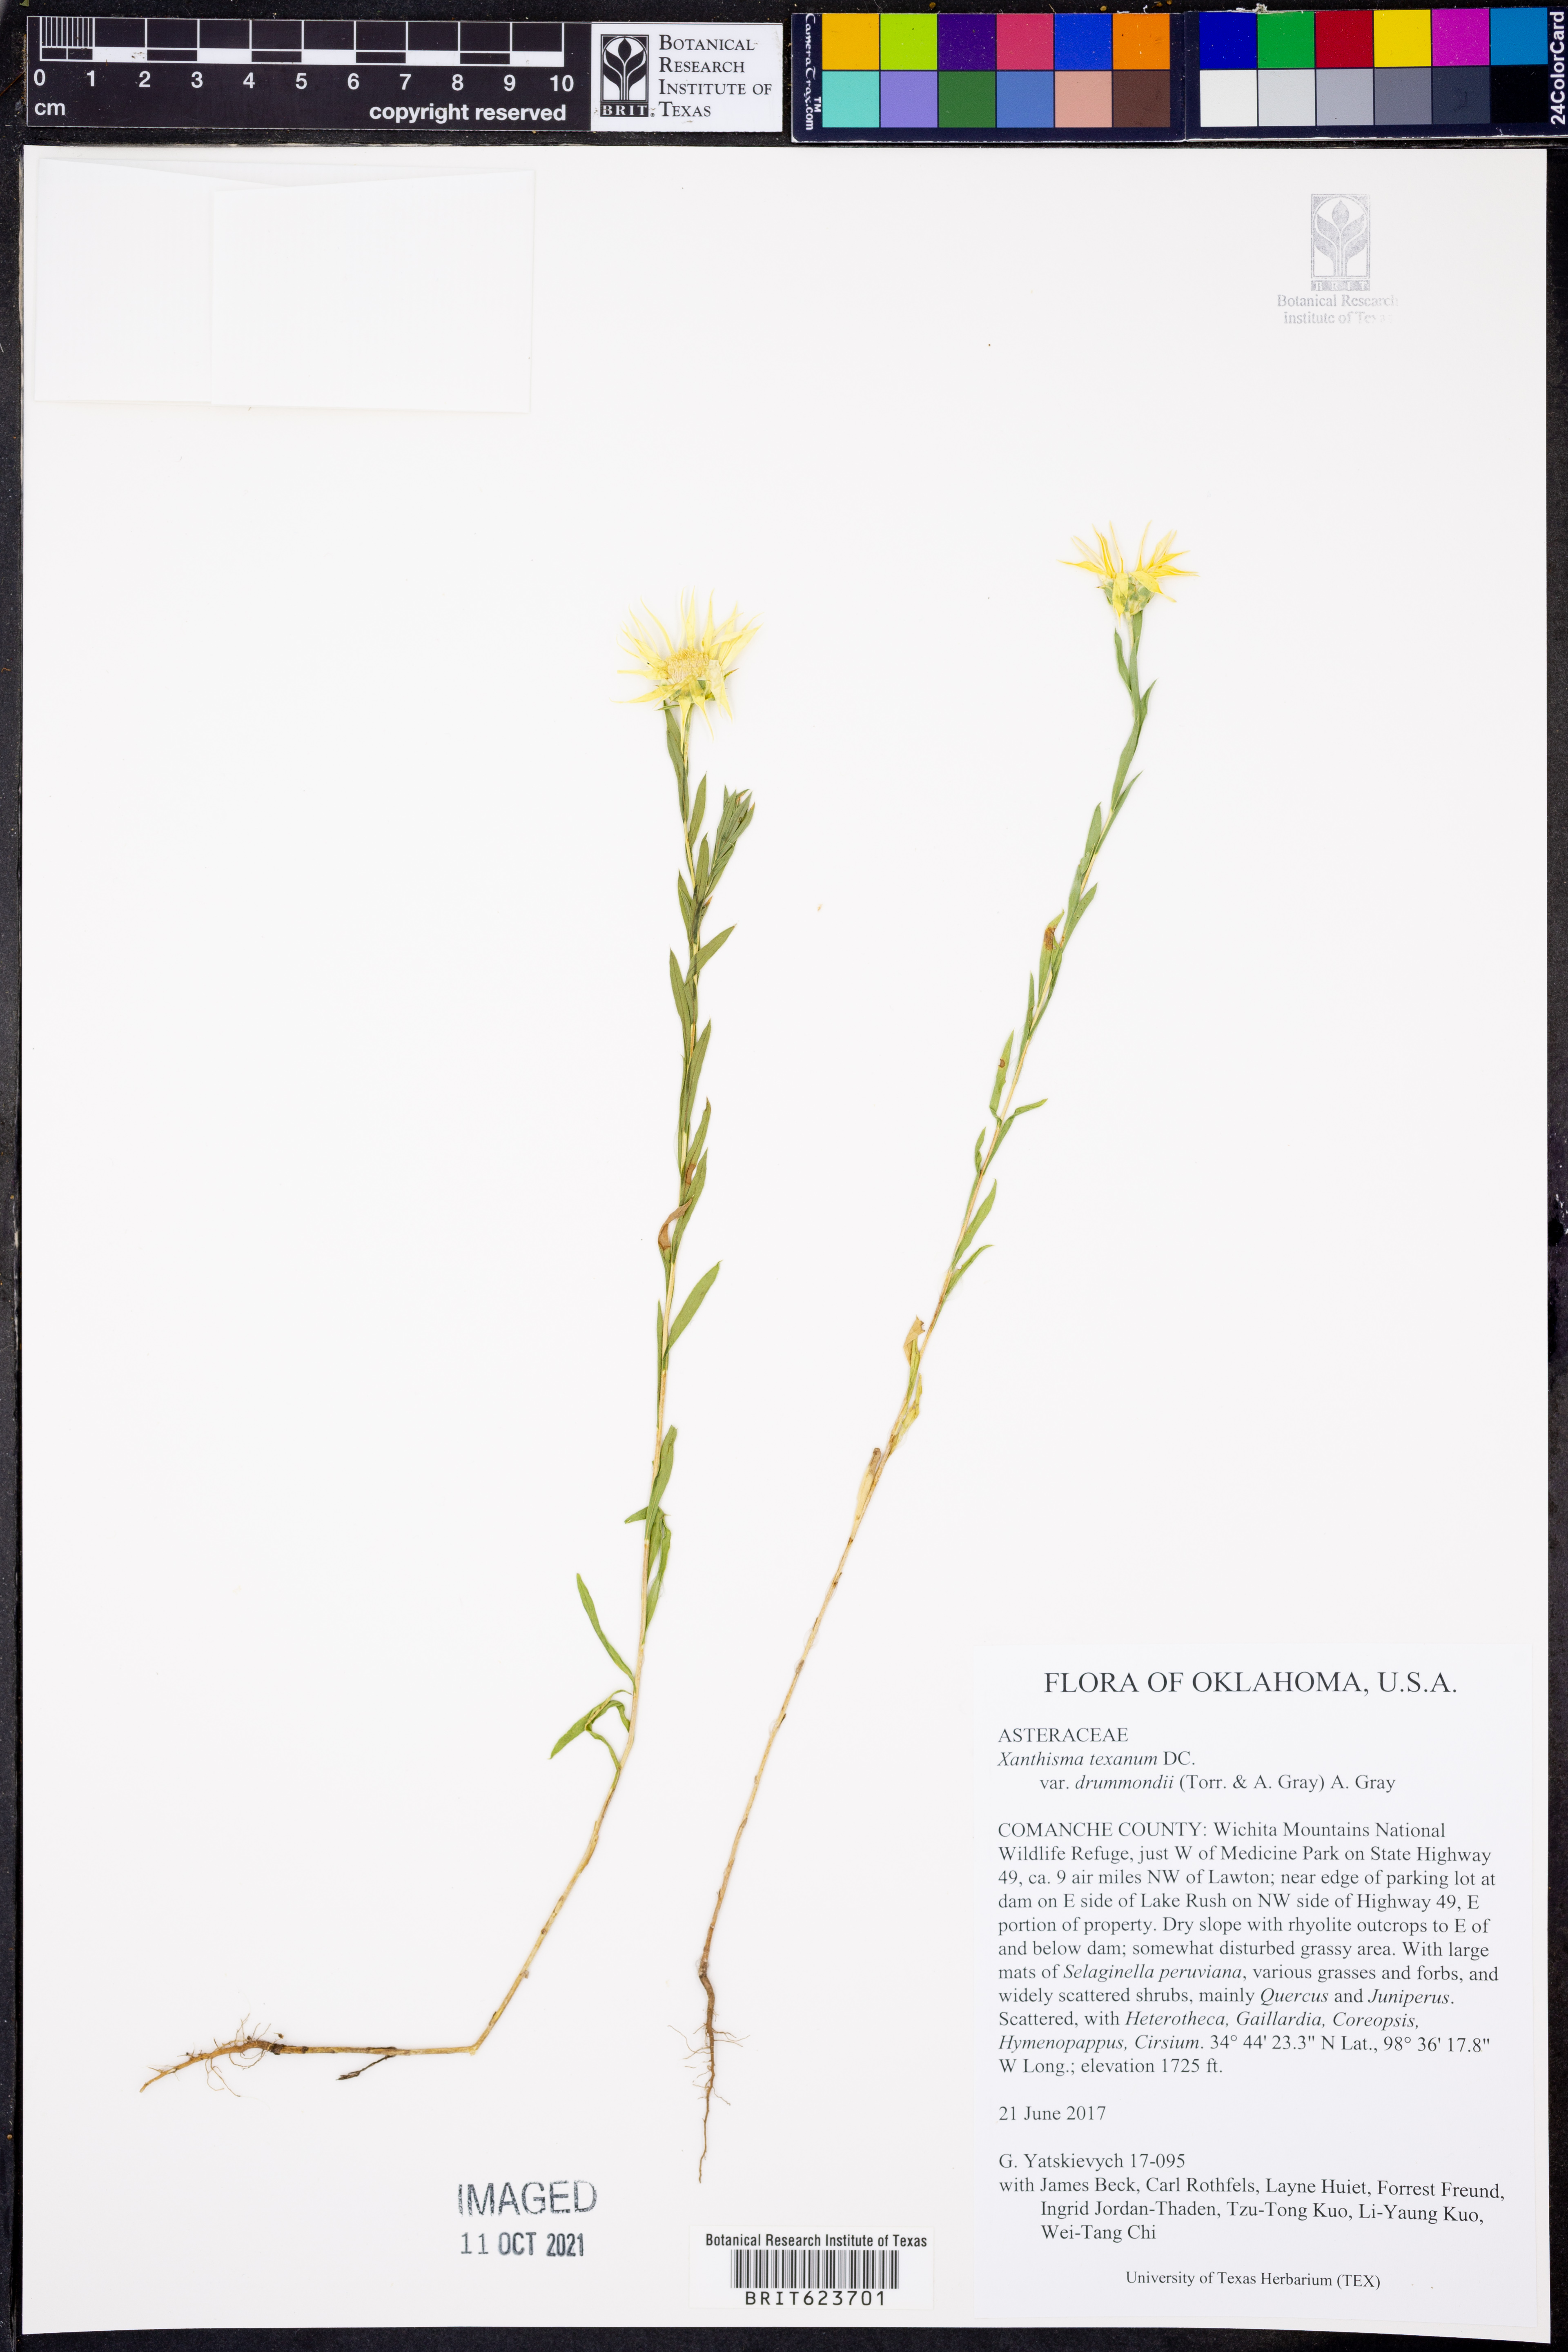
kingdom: Plantae
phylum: Tracheophyta
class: Magnoliopsida
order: Asterales
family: Asteraceae
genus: Xanthisma
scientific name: Xanthisma texanum
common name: Texas sleepy daisy
